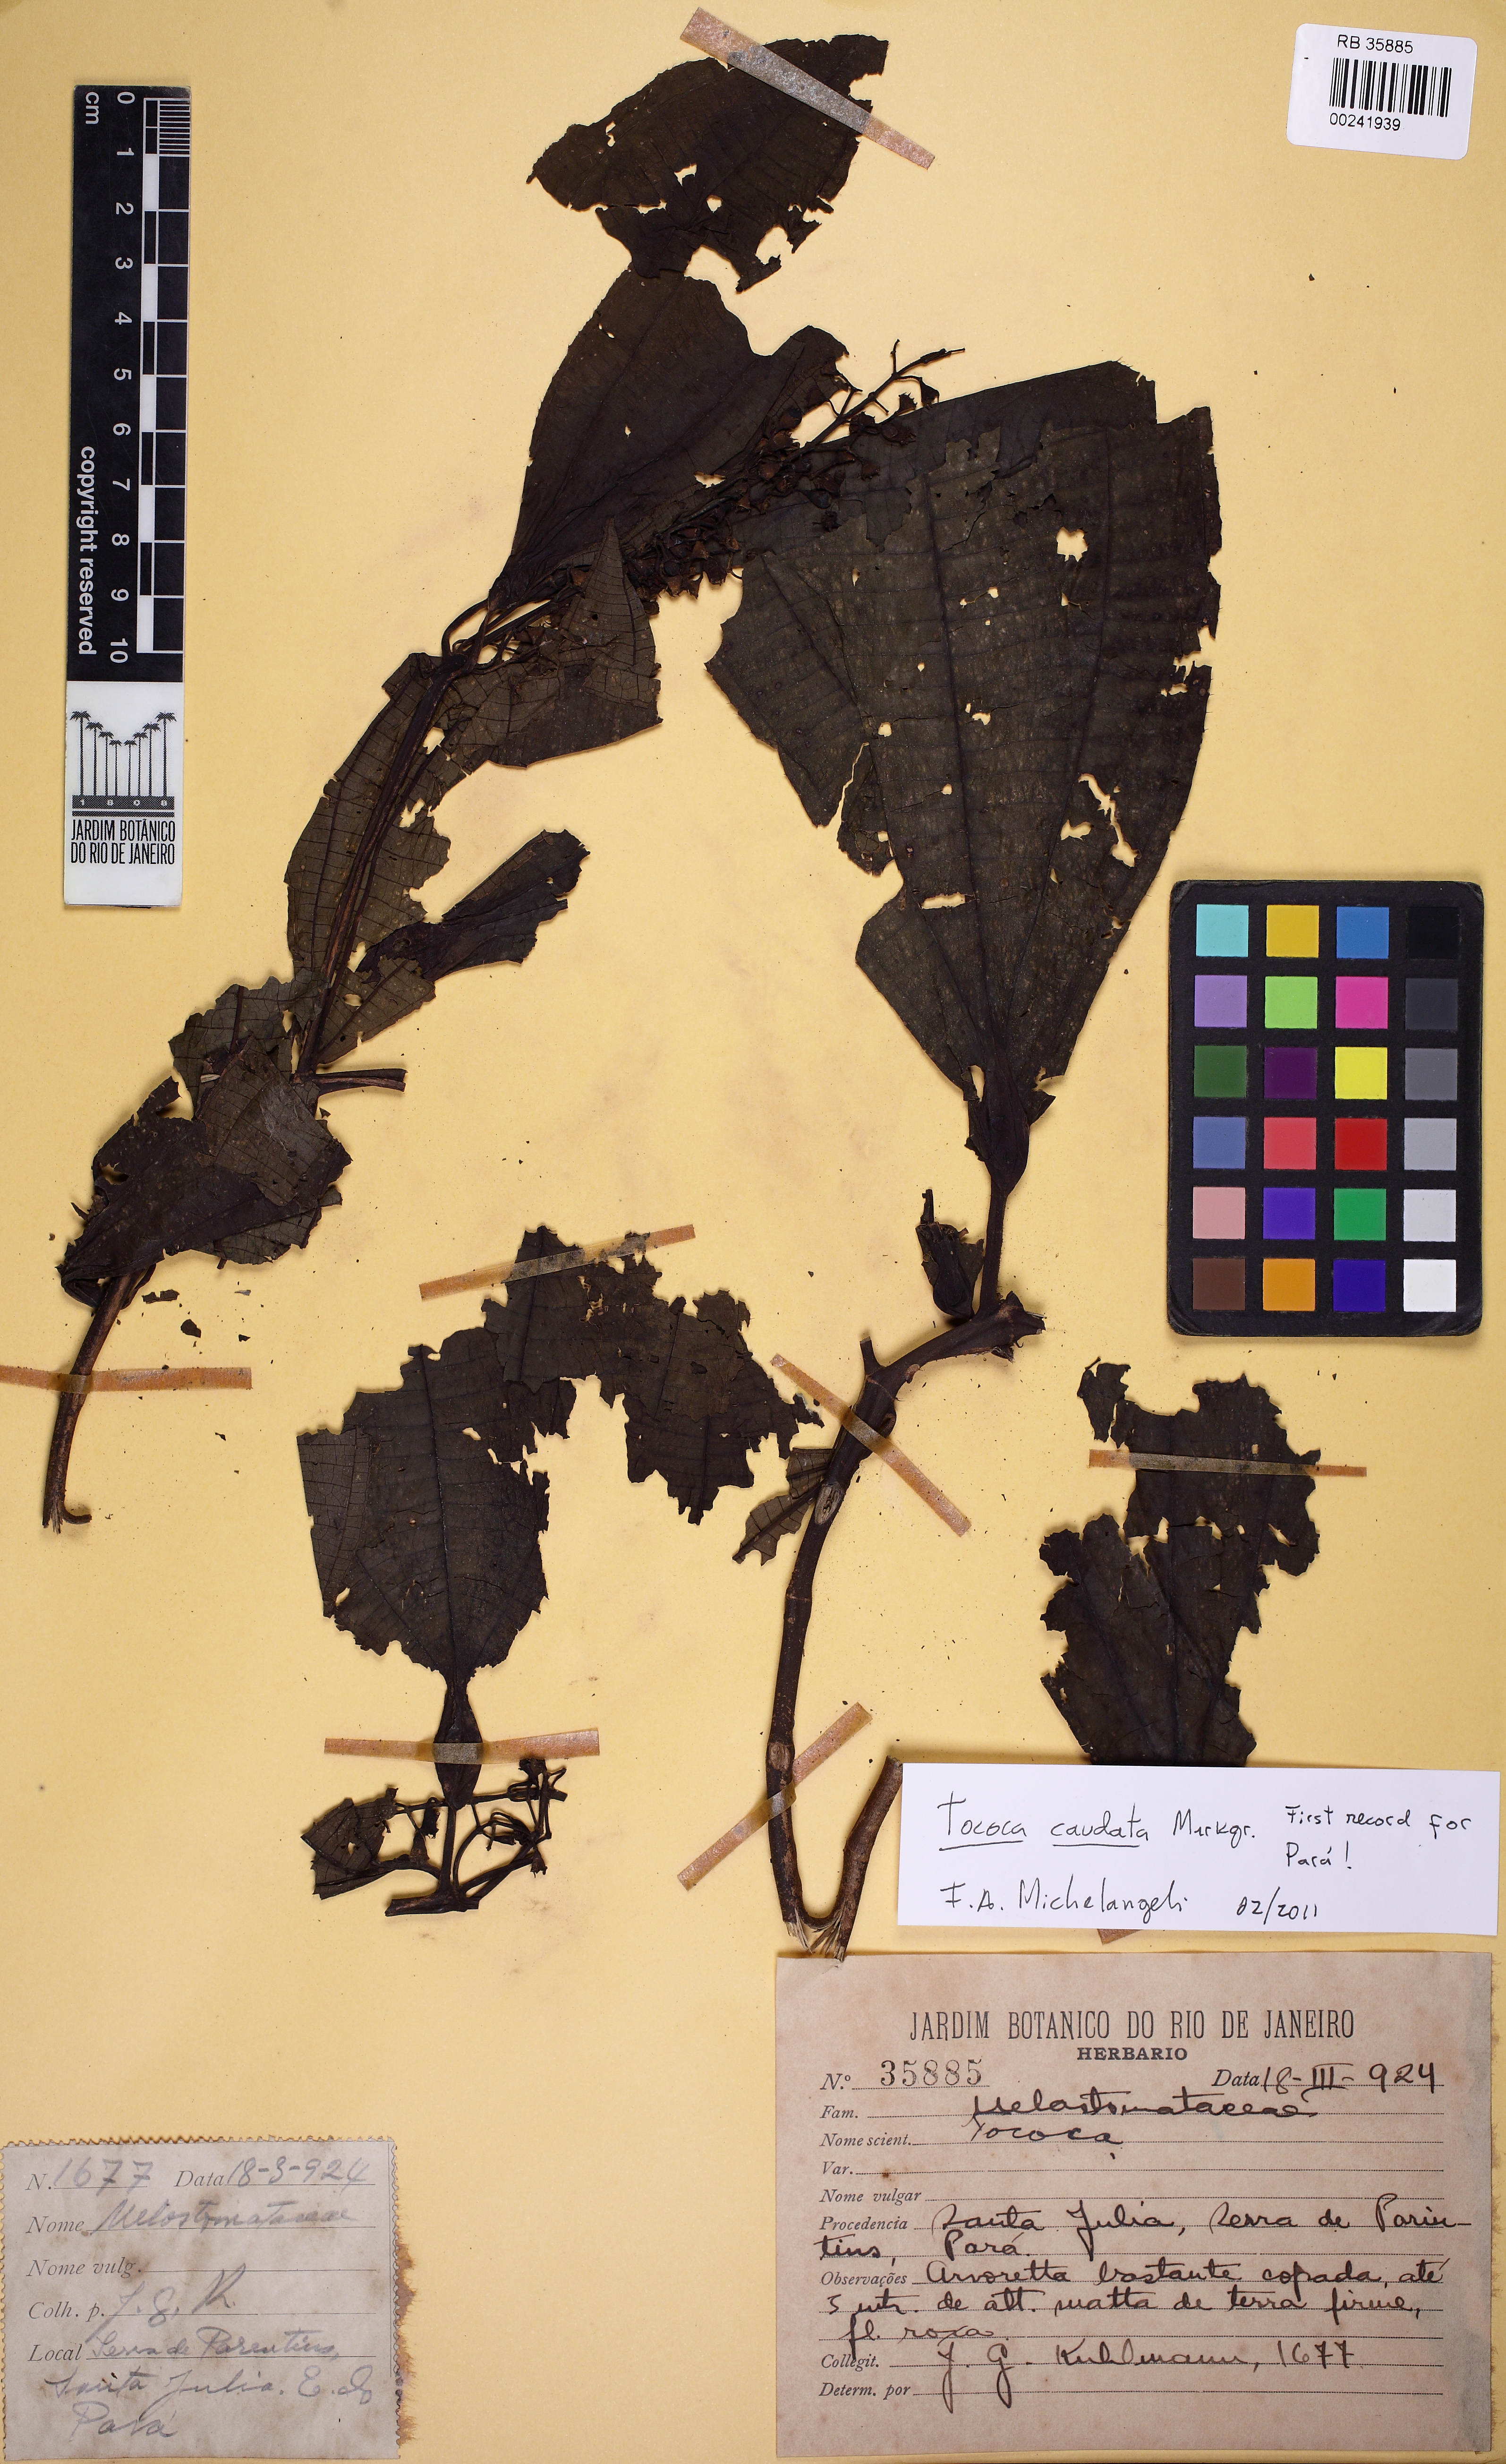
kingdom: Plantae
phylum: Tracheophyta
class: Magnoliopsida
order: Myrtales
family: Melastomataceae
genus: Miconia
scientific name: Miconia tococaudata
